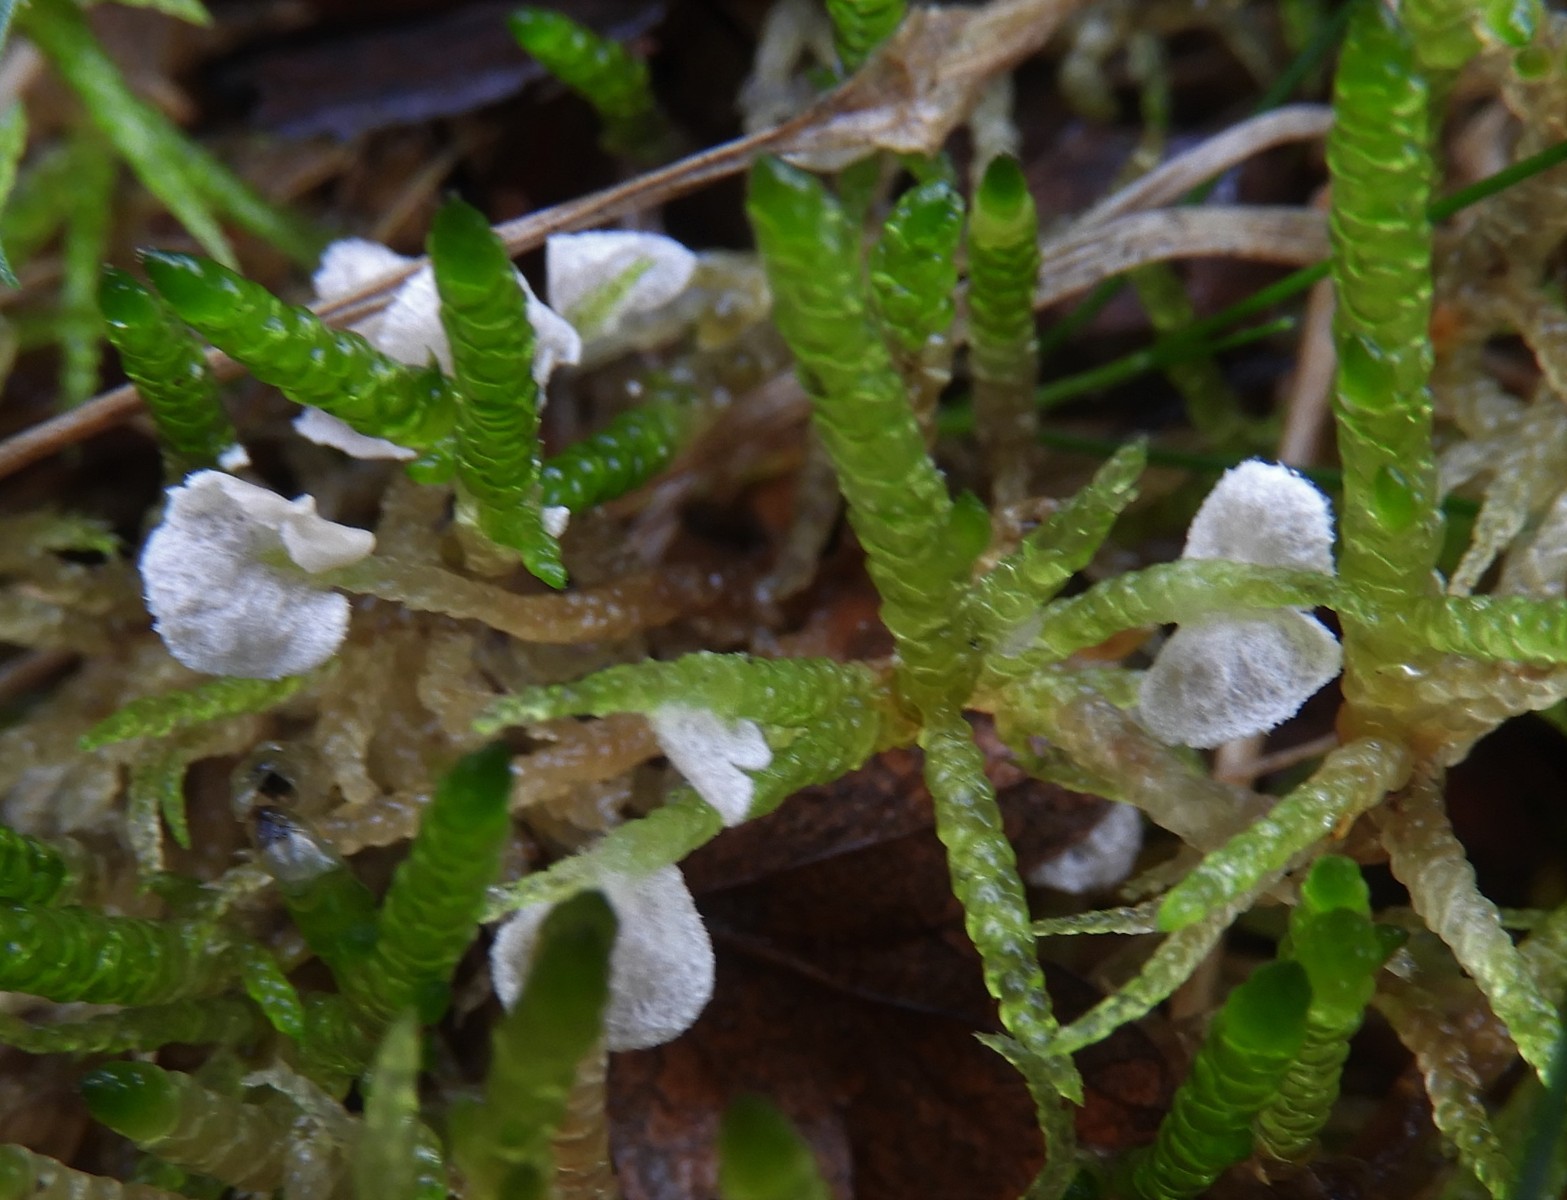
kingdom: Fungi
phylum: Basidiomycota
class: Agaricomycetes
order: Agaricales
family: Hygrophoraceae
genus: Arrhenia
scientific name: Arrhenia retiruga
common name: lille fontænehat
